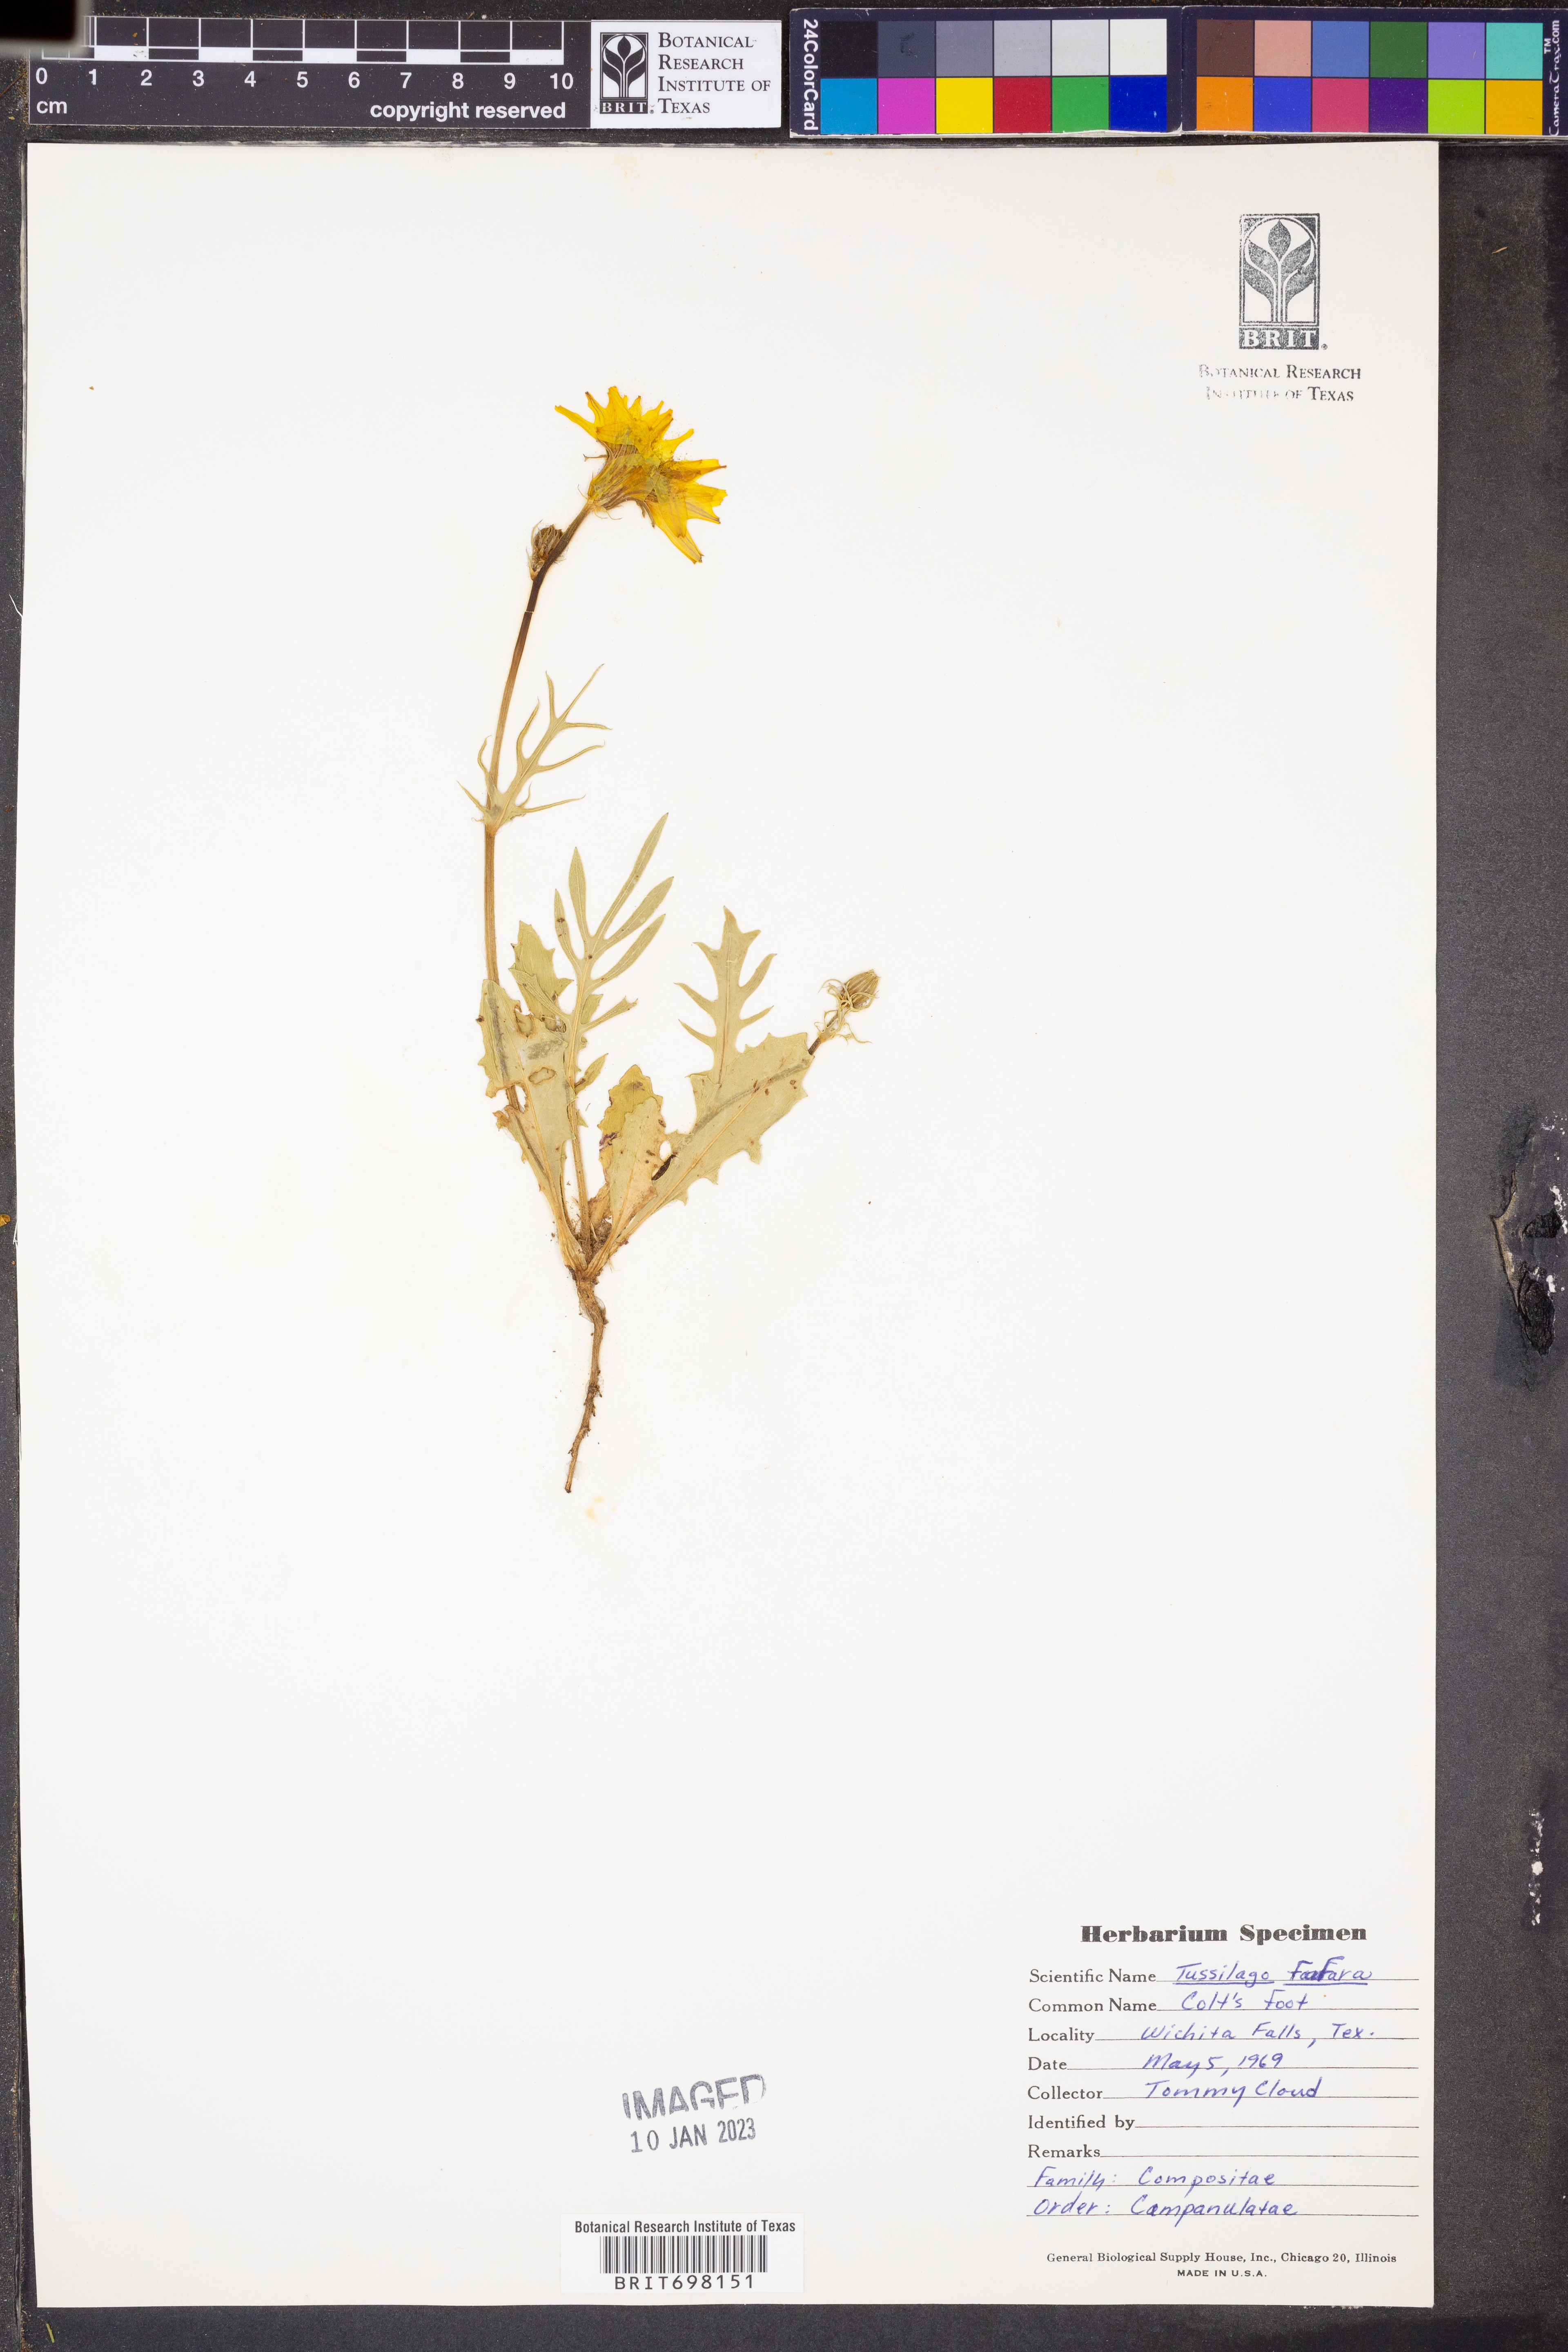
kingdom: Plantae
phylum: Tracheophyta
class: Magnoliopsida
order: Asterales
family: Asteraceae
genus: Tussilago
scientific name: Tussilago farfara
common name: Coltsfoot
